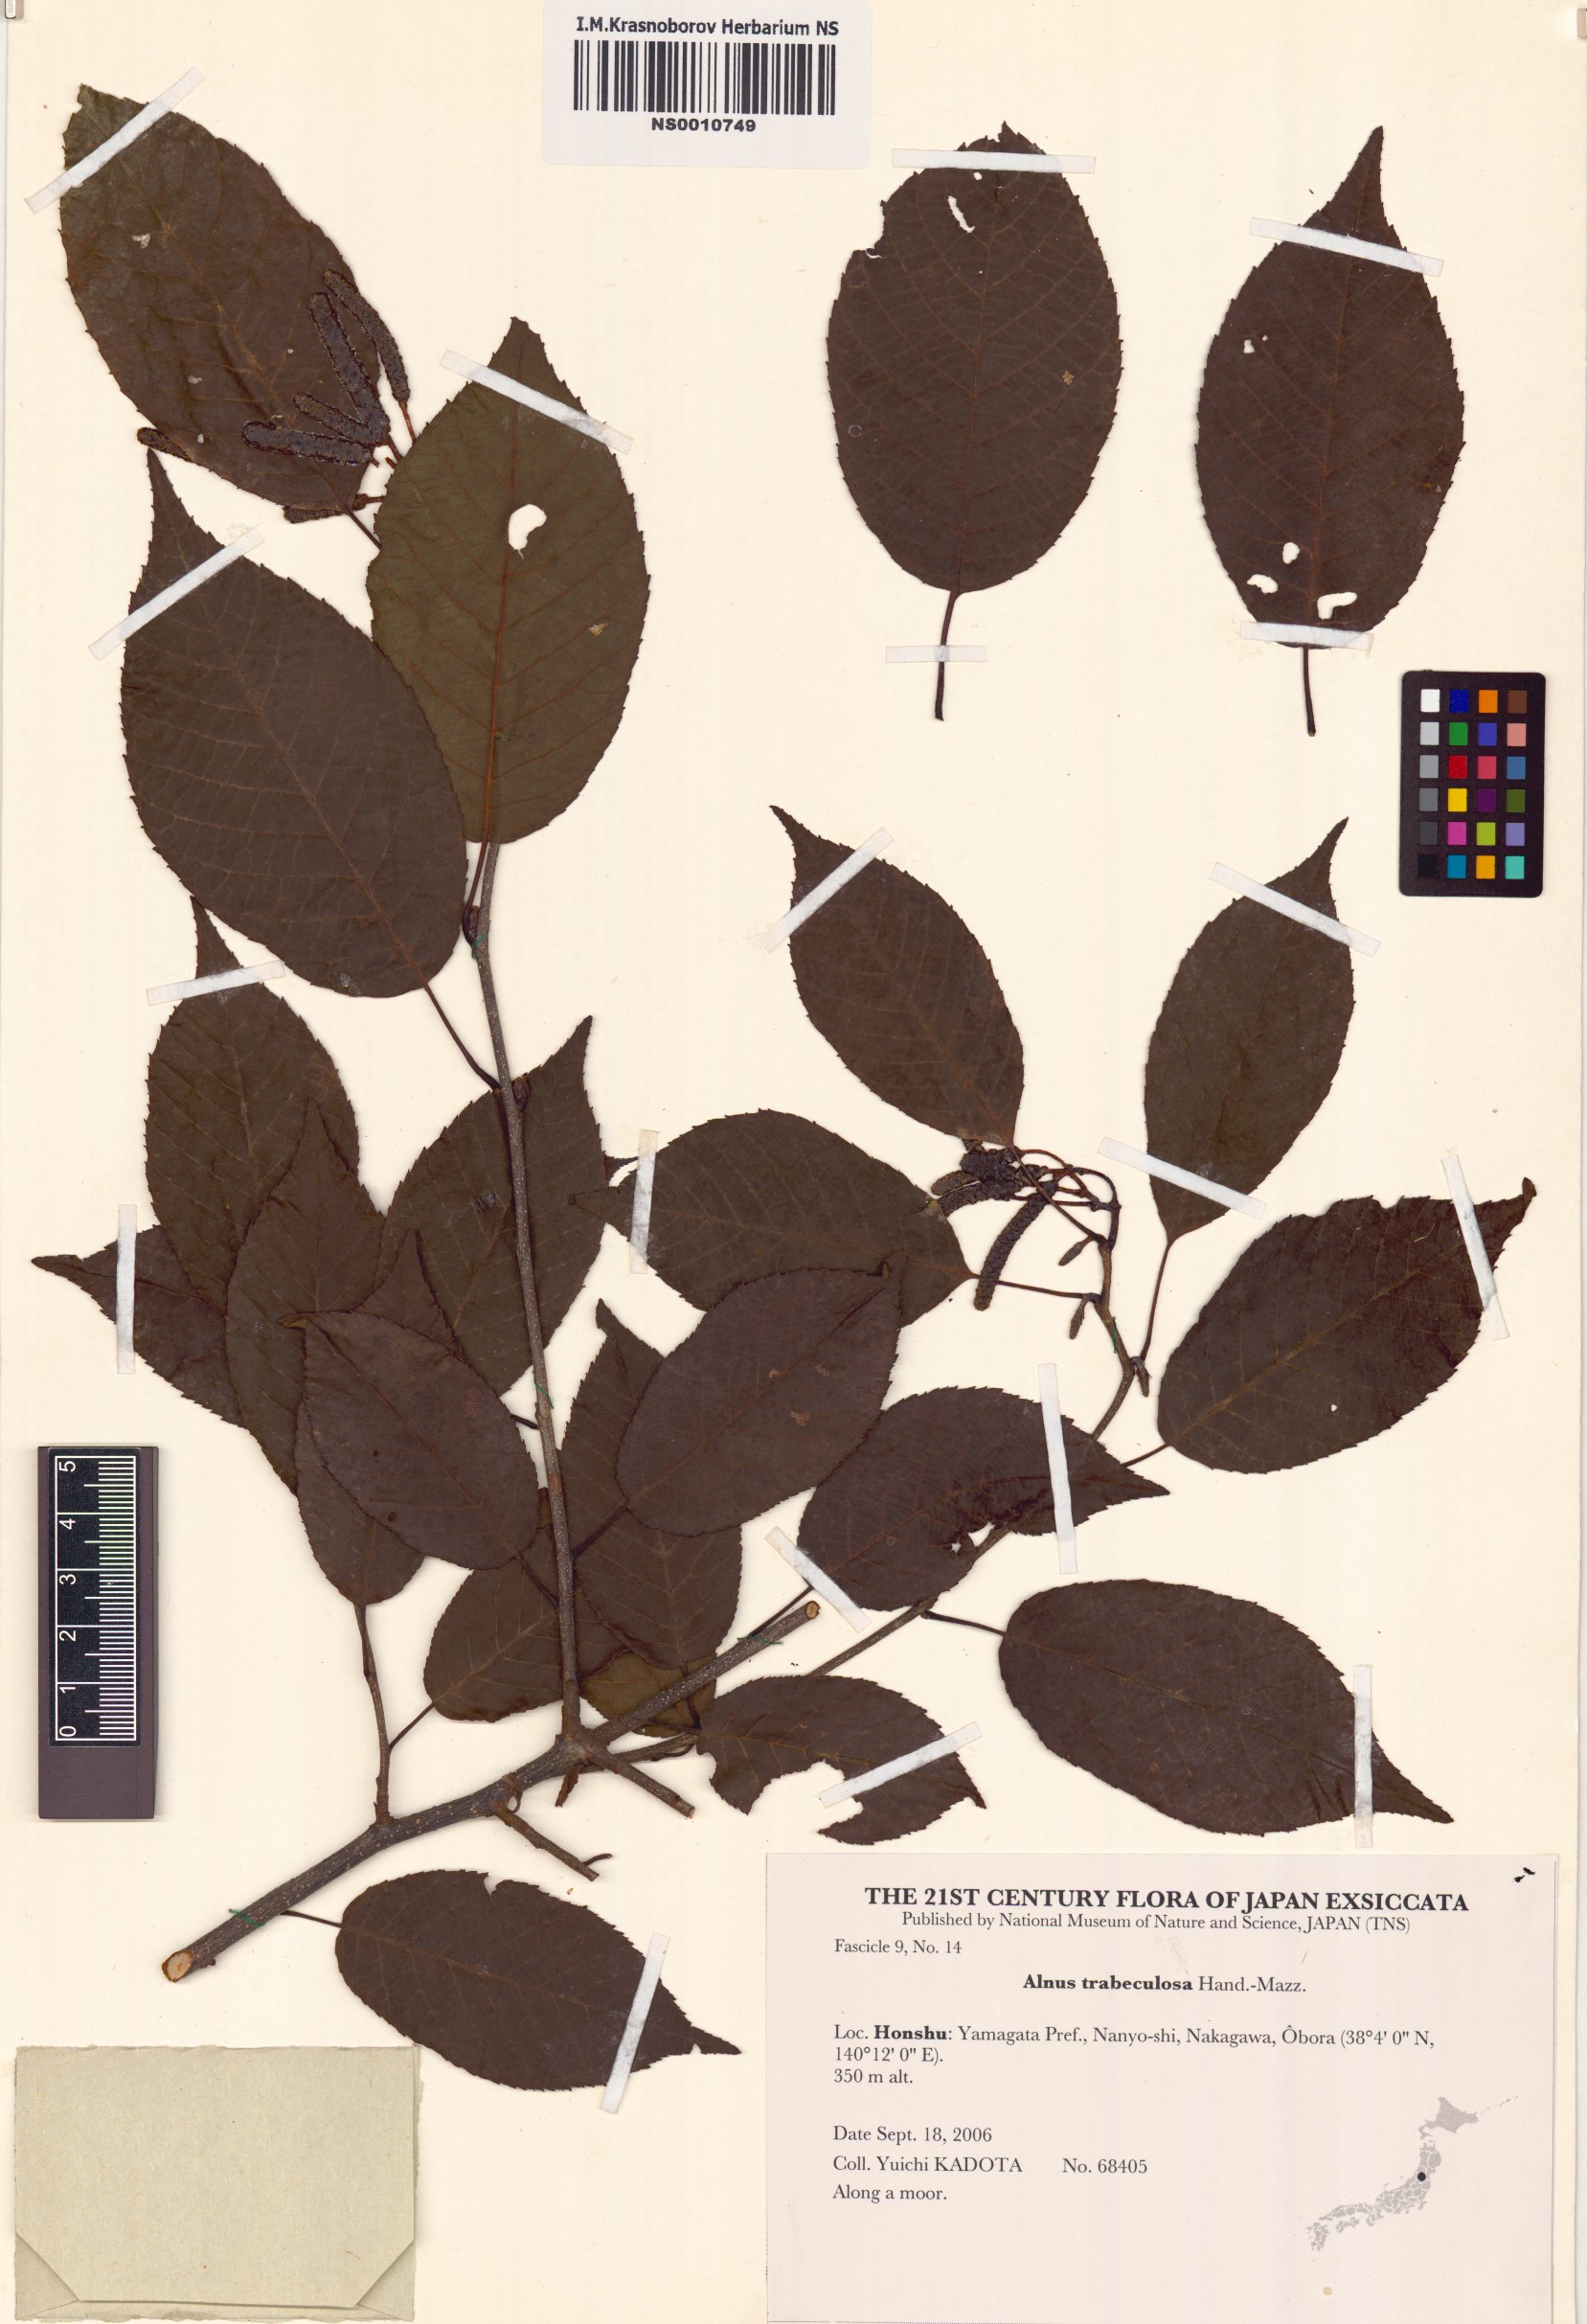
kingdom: Plantae
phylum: Tracheophyta
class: Magnoliopsida
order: Fagales
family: Betulaceae
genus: Alnus
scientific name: Alnus trabeculosa
